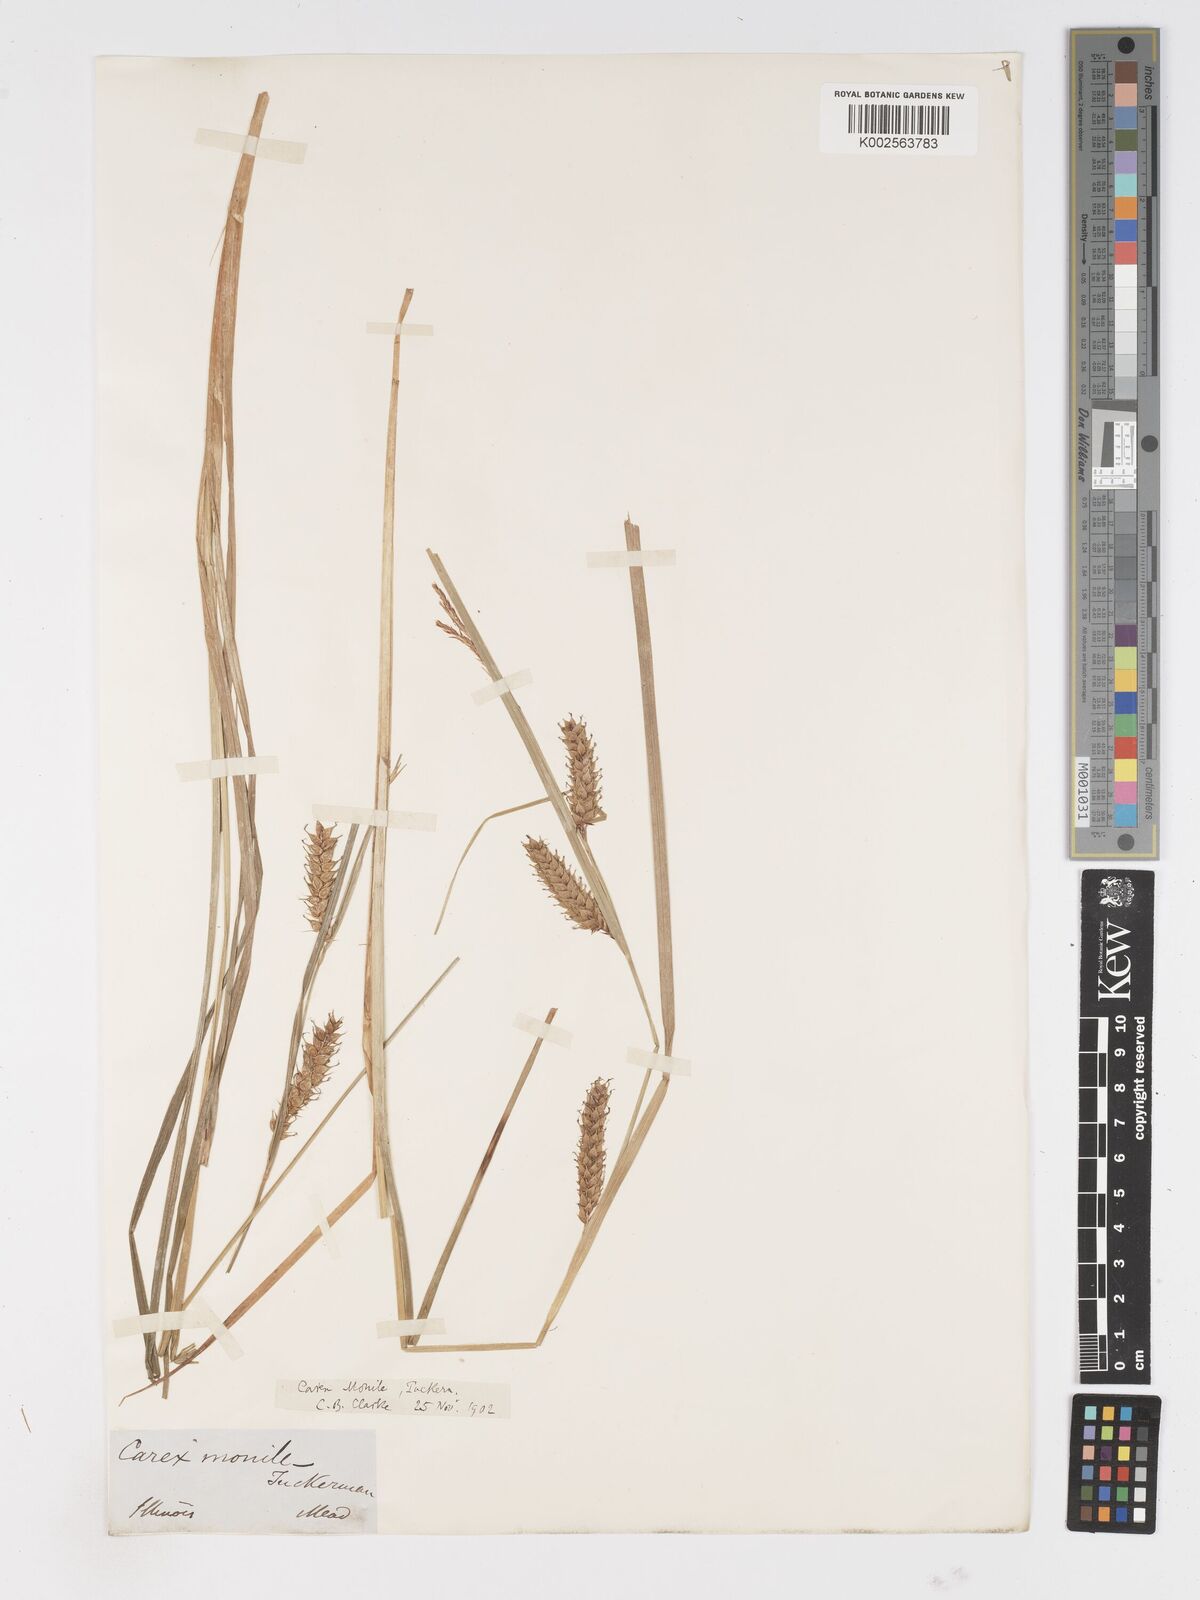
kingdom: Plantae
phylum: Tracheophyta
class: Liliopsida
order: Poales
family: Cyperaceae
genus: Carex
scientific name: Carex vesicaria
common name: Bladder-sedge
